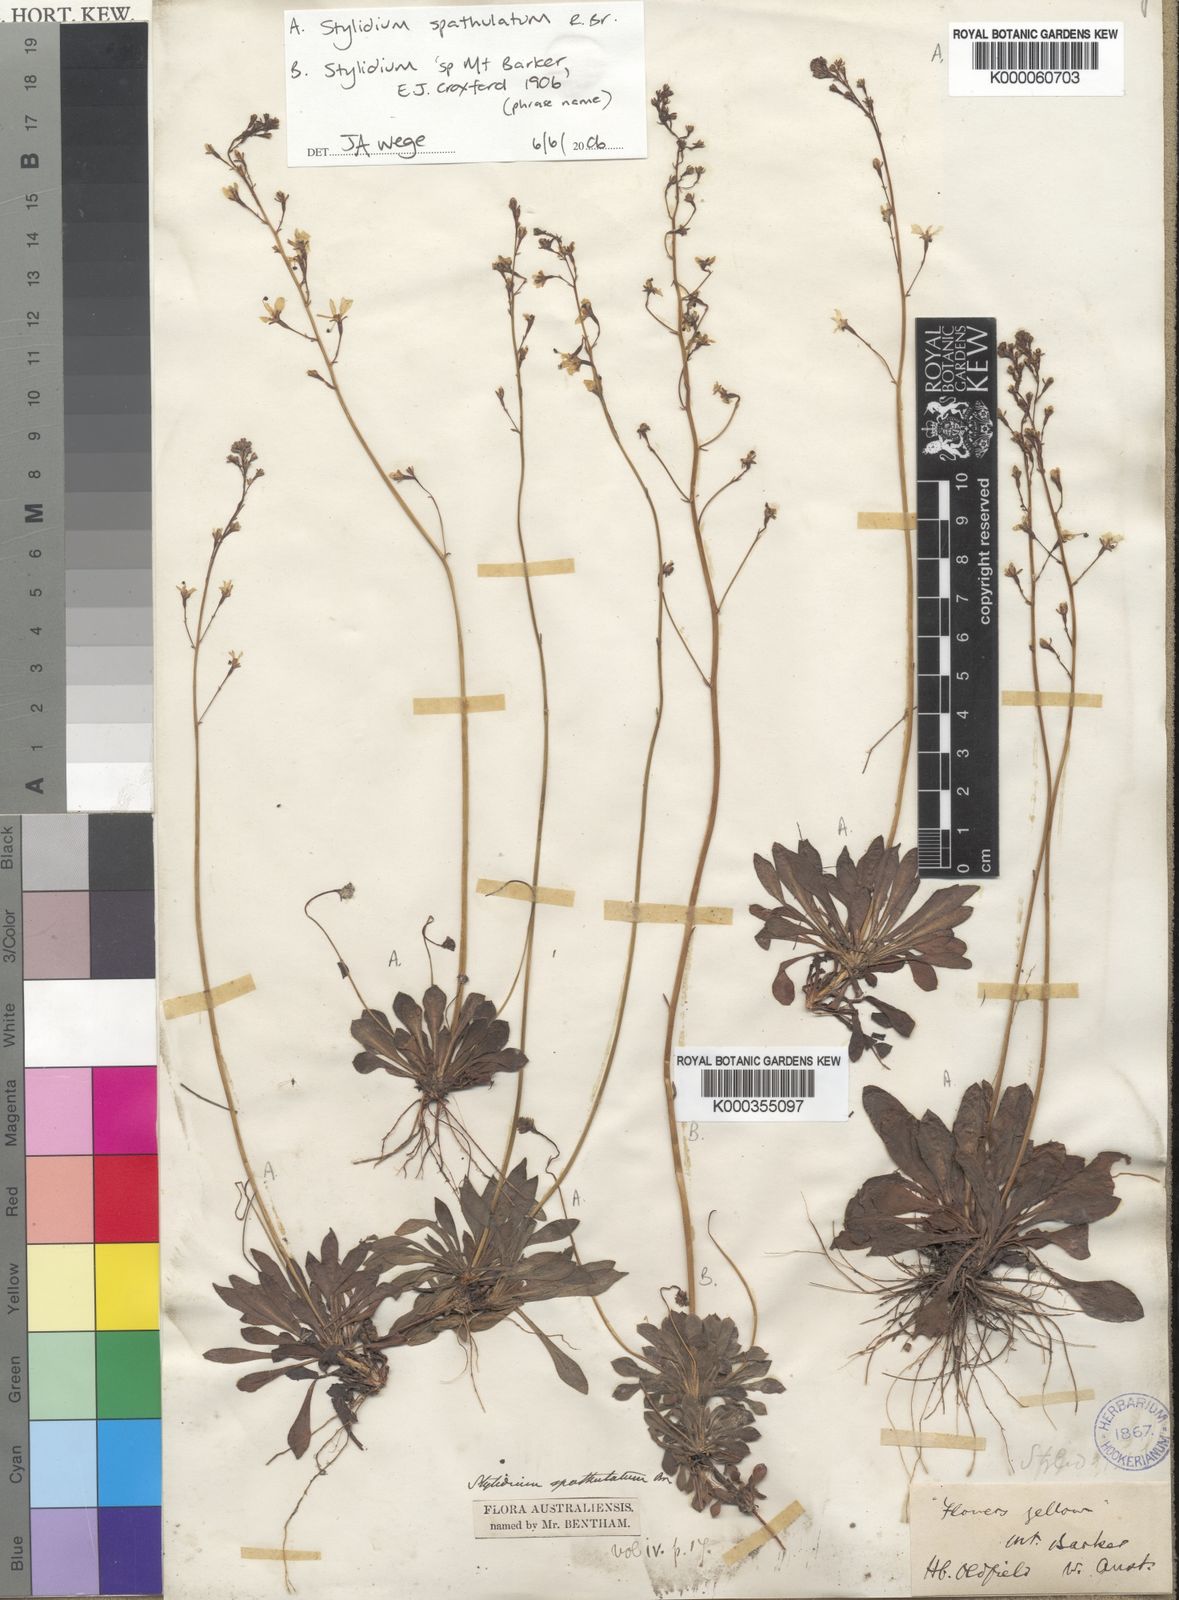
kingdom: Plantae
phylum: Tracheophyta
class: Magnoliopsida
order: Asterales
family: Stylidiaceae
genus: Stylidium
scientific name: Stylidium spathulatum
